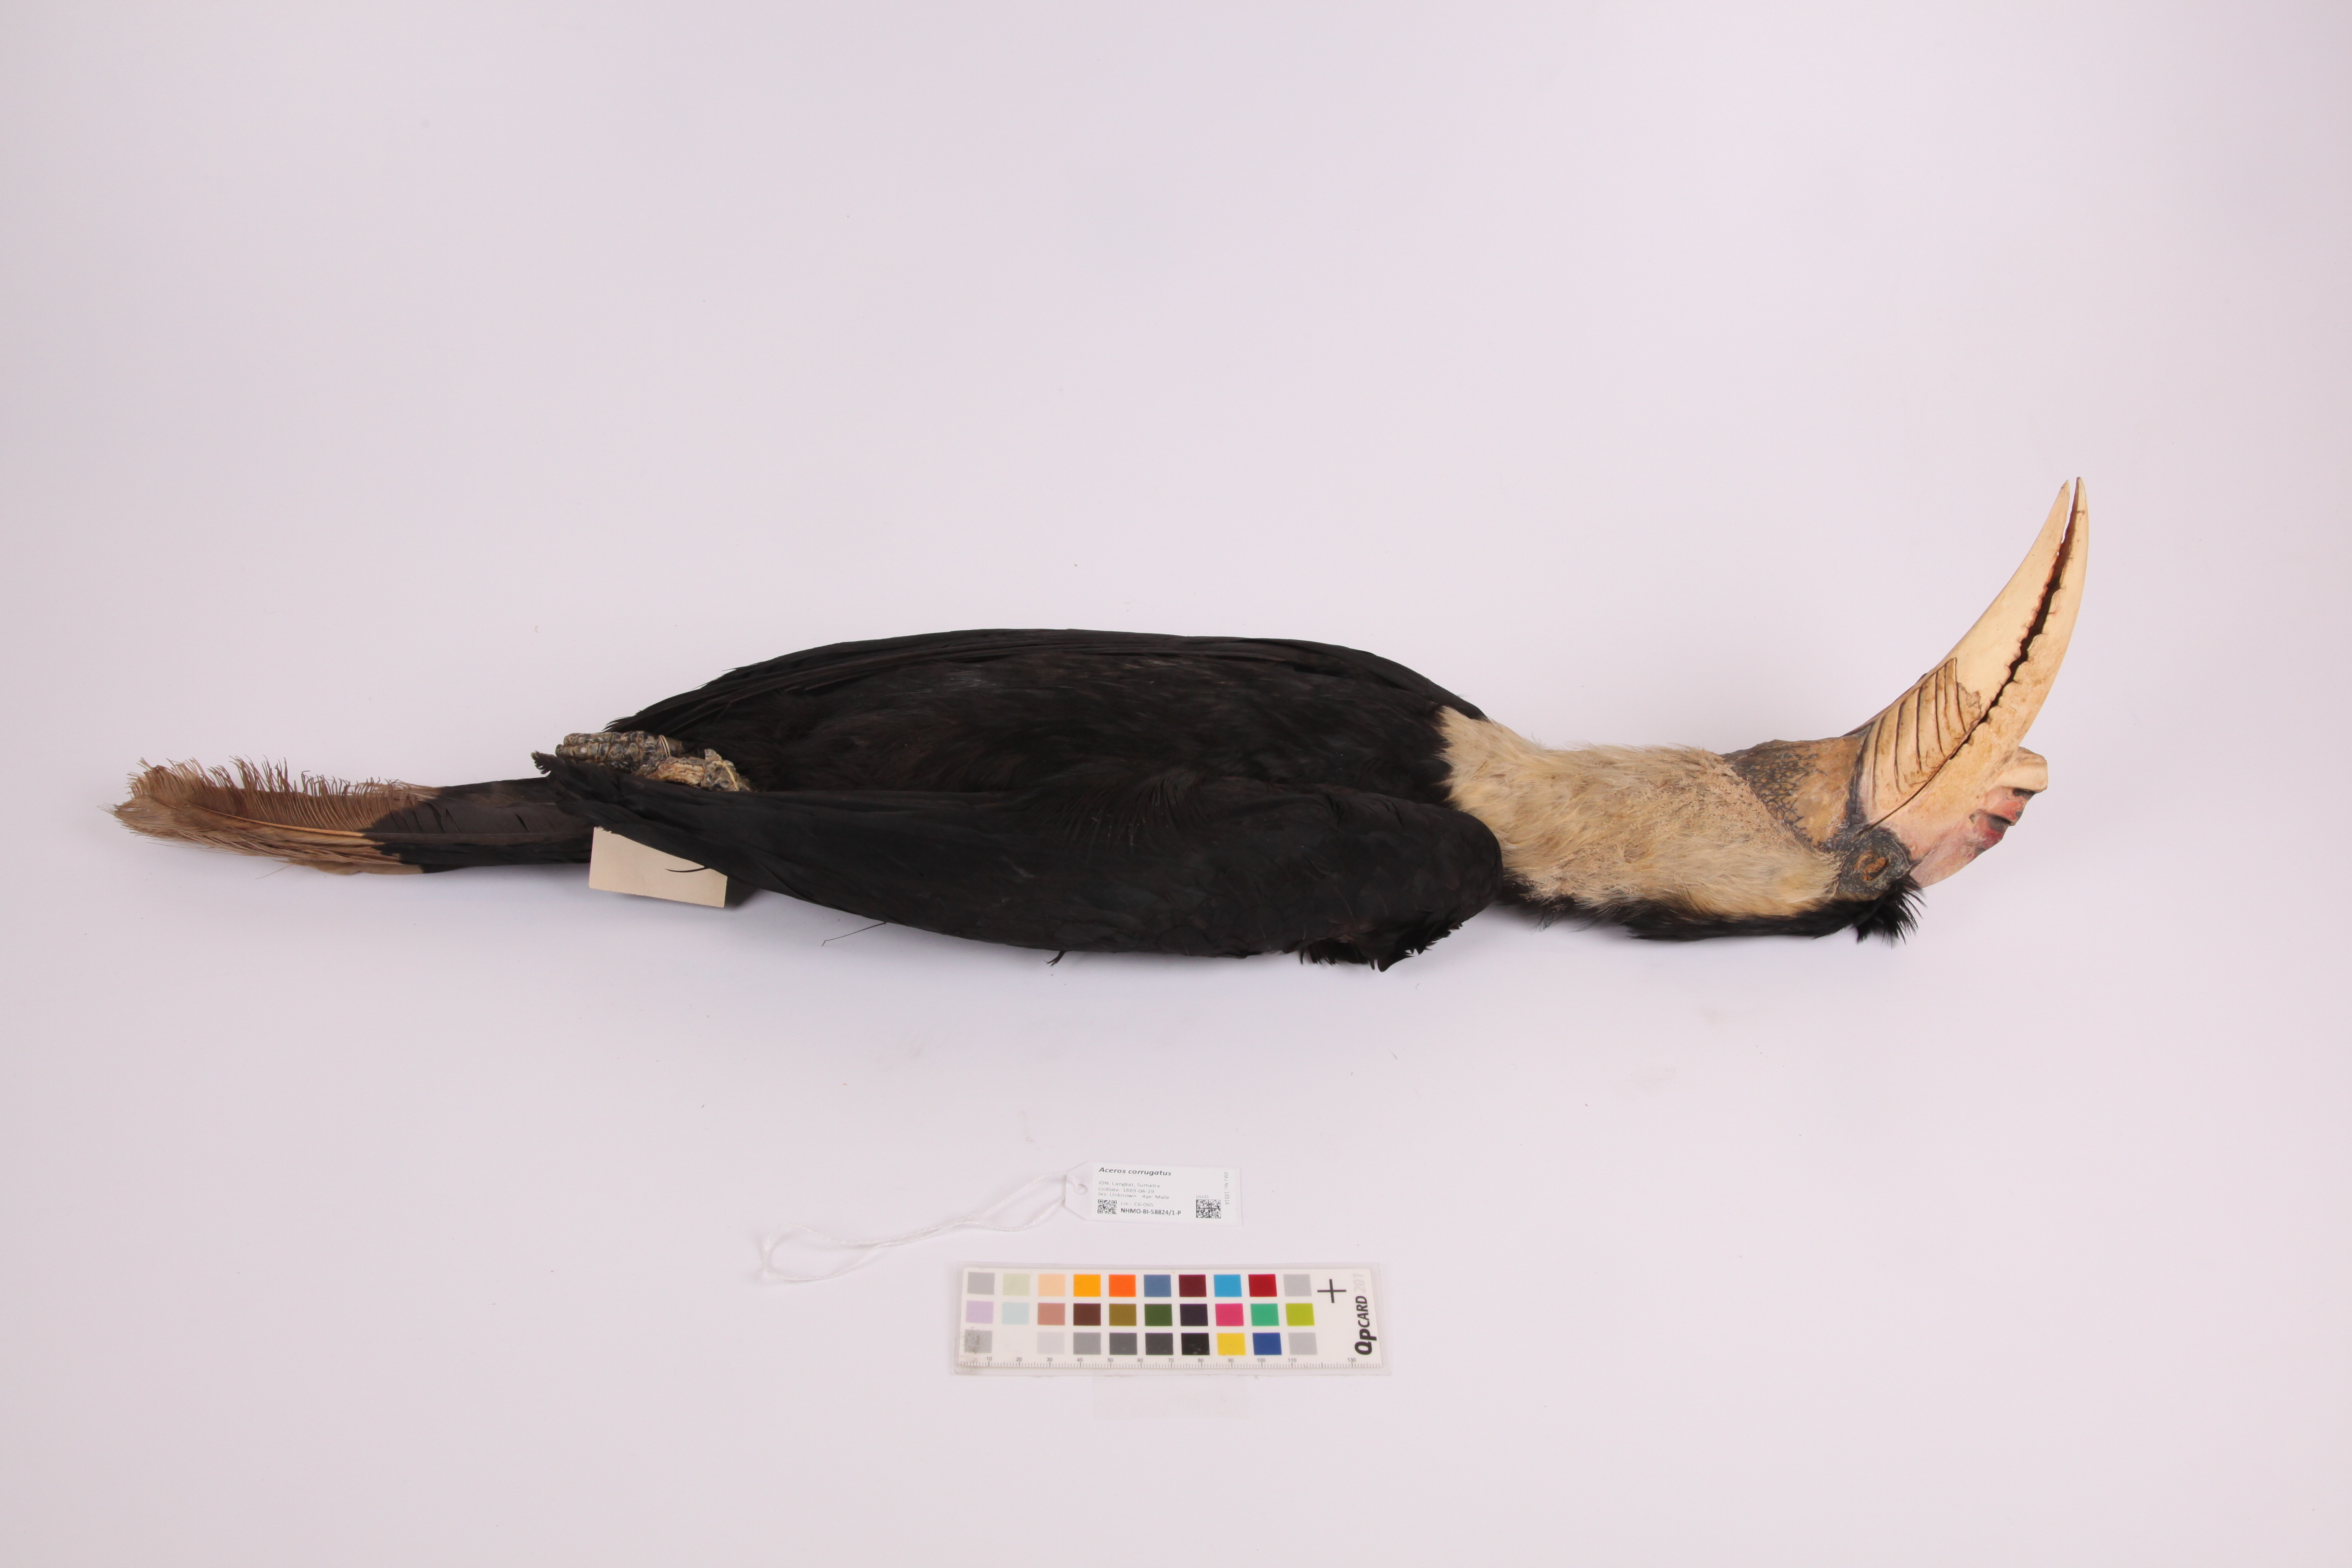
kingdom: Animalia
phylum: Chordata
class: Aves
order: Bucerotiformes
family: Bucerotidae
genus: Rhabdotorrhinus
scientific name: Rhabdotorrhinus corrugatus
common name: Wrinkled hornbill
